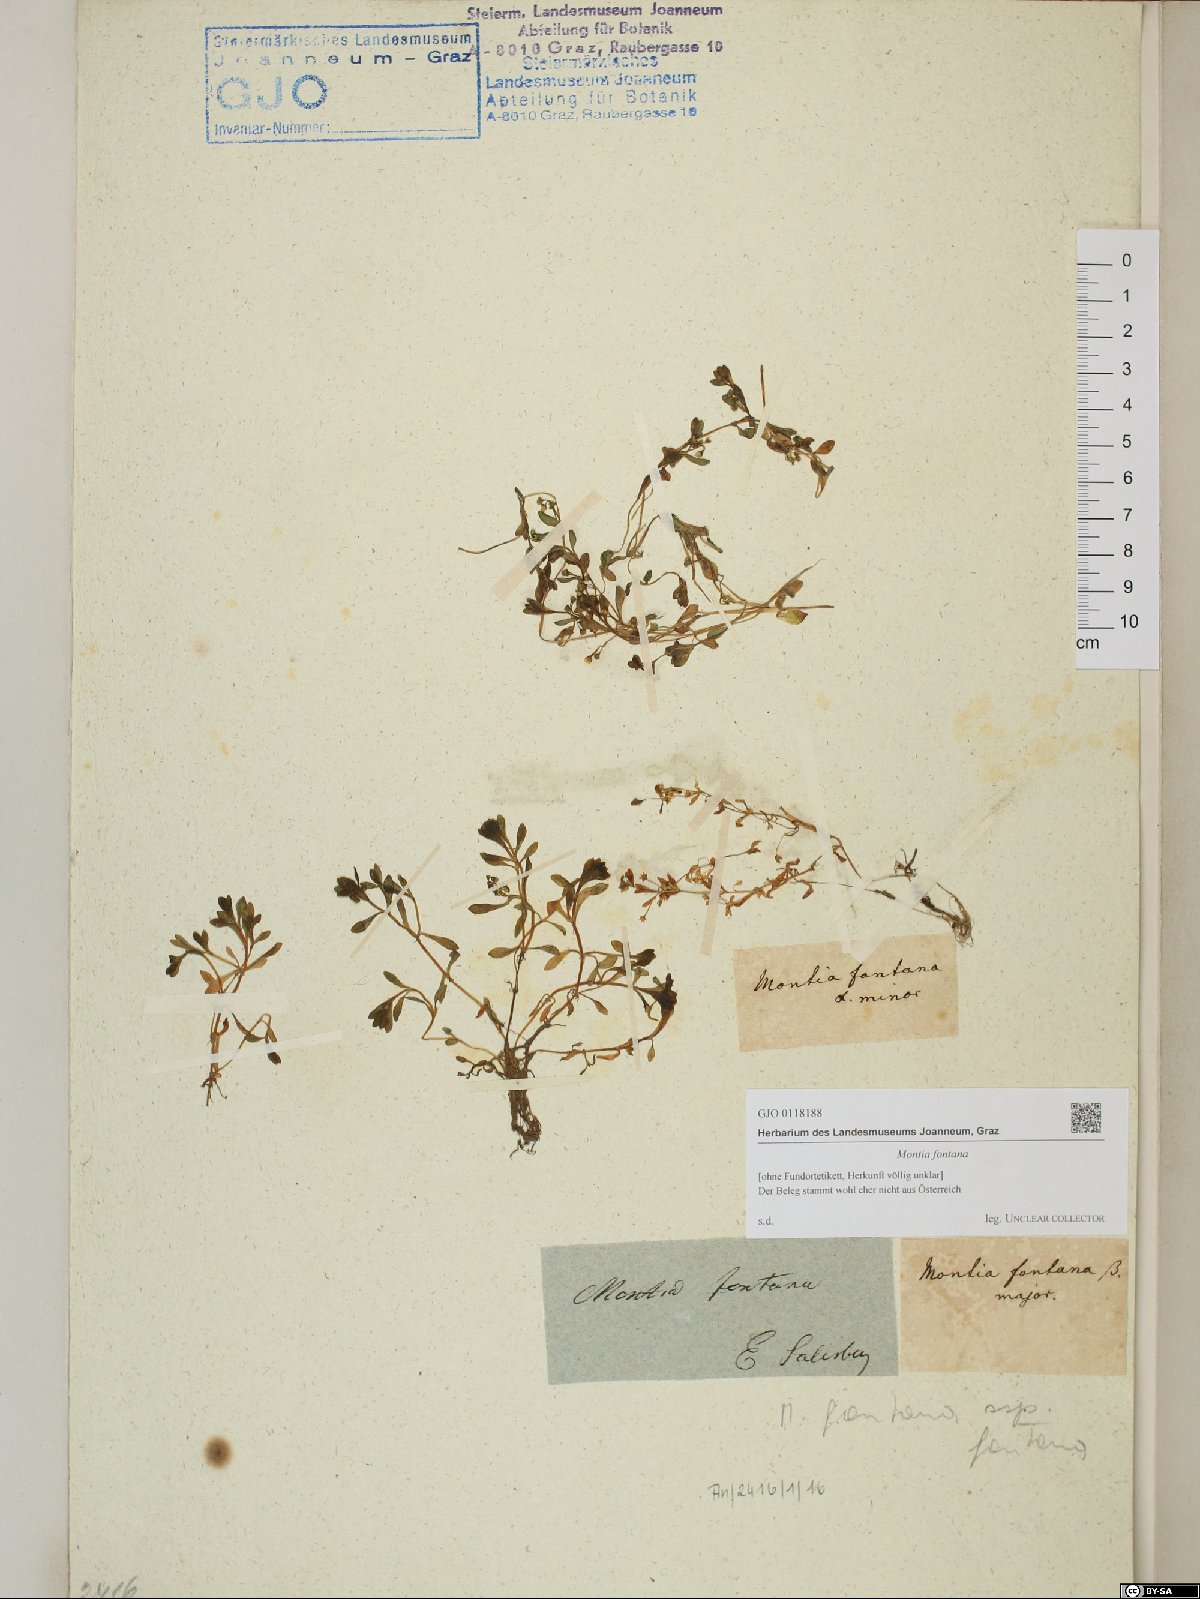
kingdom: Plantae
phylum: Tracheophyta
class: Magnoliopsida
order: Caryophyllales
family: Montiaceae
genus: Montia
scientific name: Montia fontana
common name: Blinks
